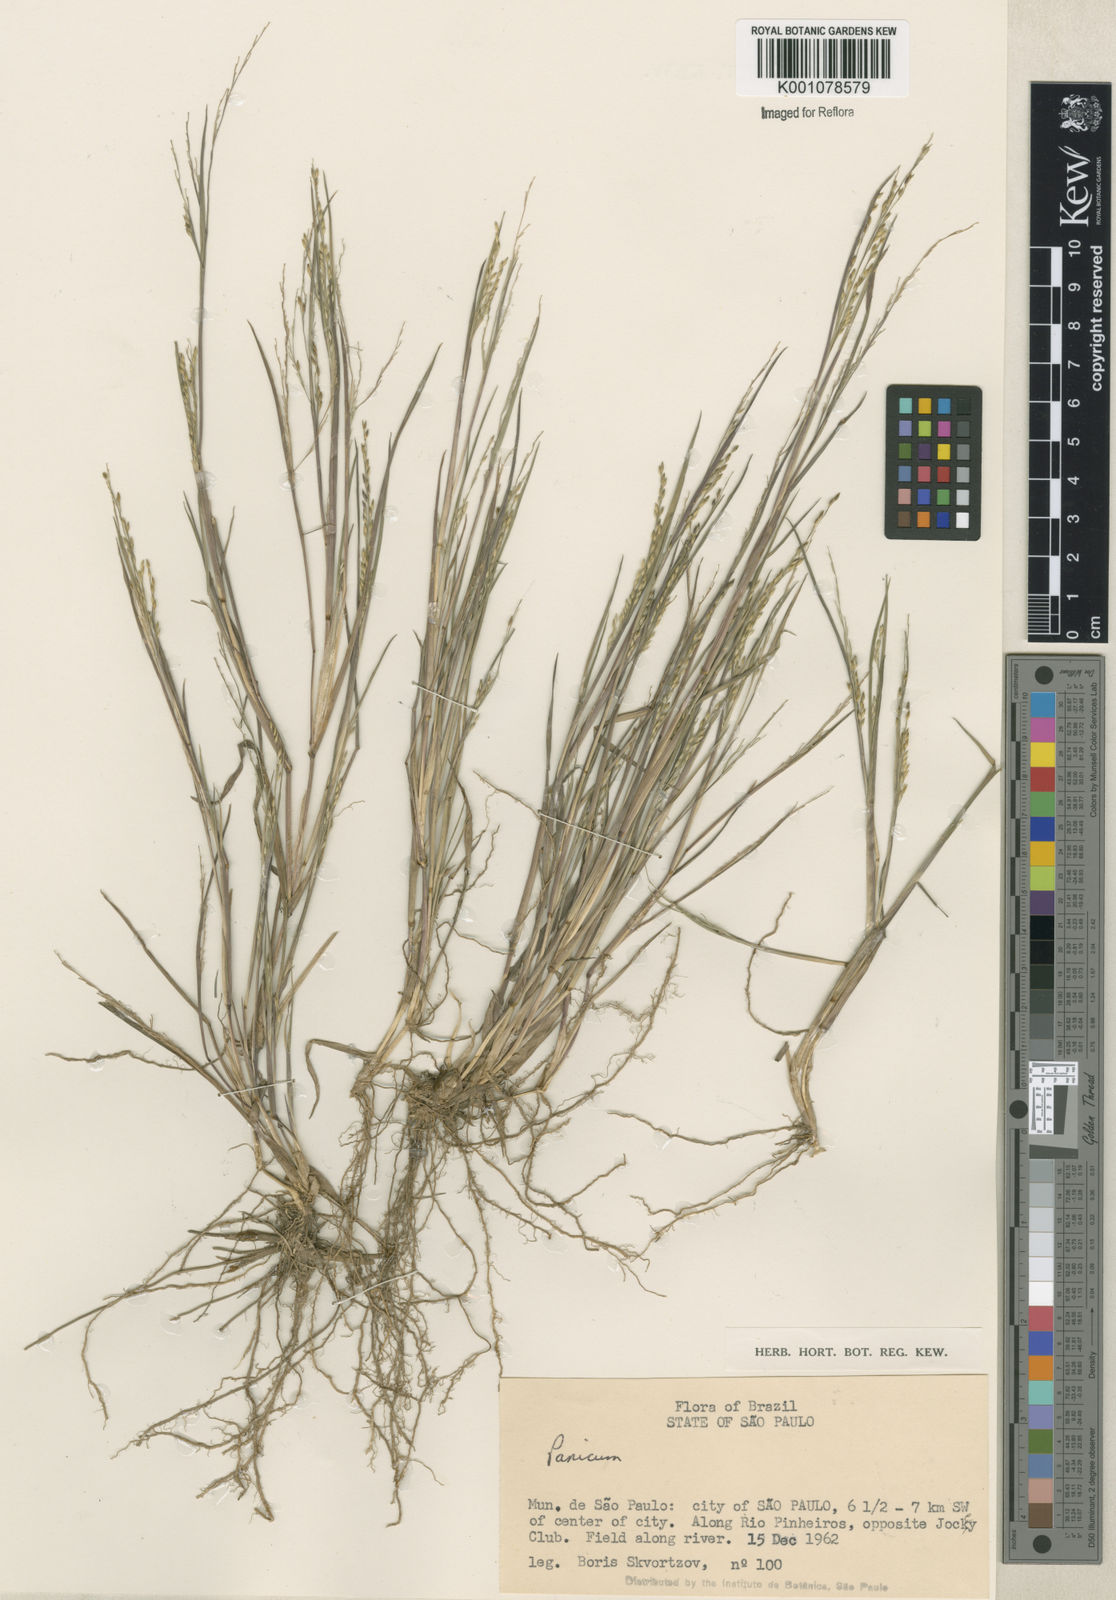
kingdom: Plantae
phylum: Tracheophyta
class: Liliopsida
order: Poales
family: Poaceae
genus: Panicum
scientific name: Panicum dichotomiflorum
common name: Autumn millet
